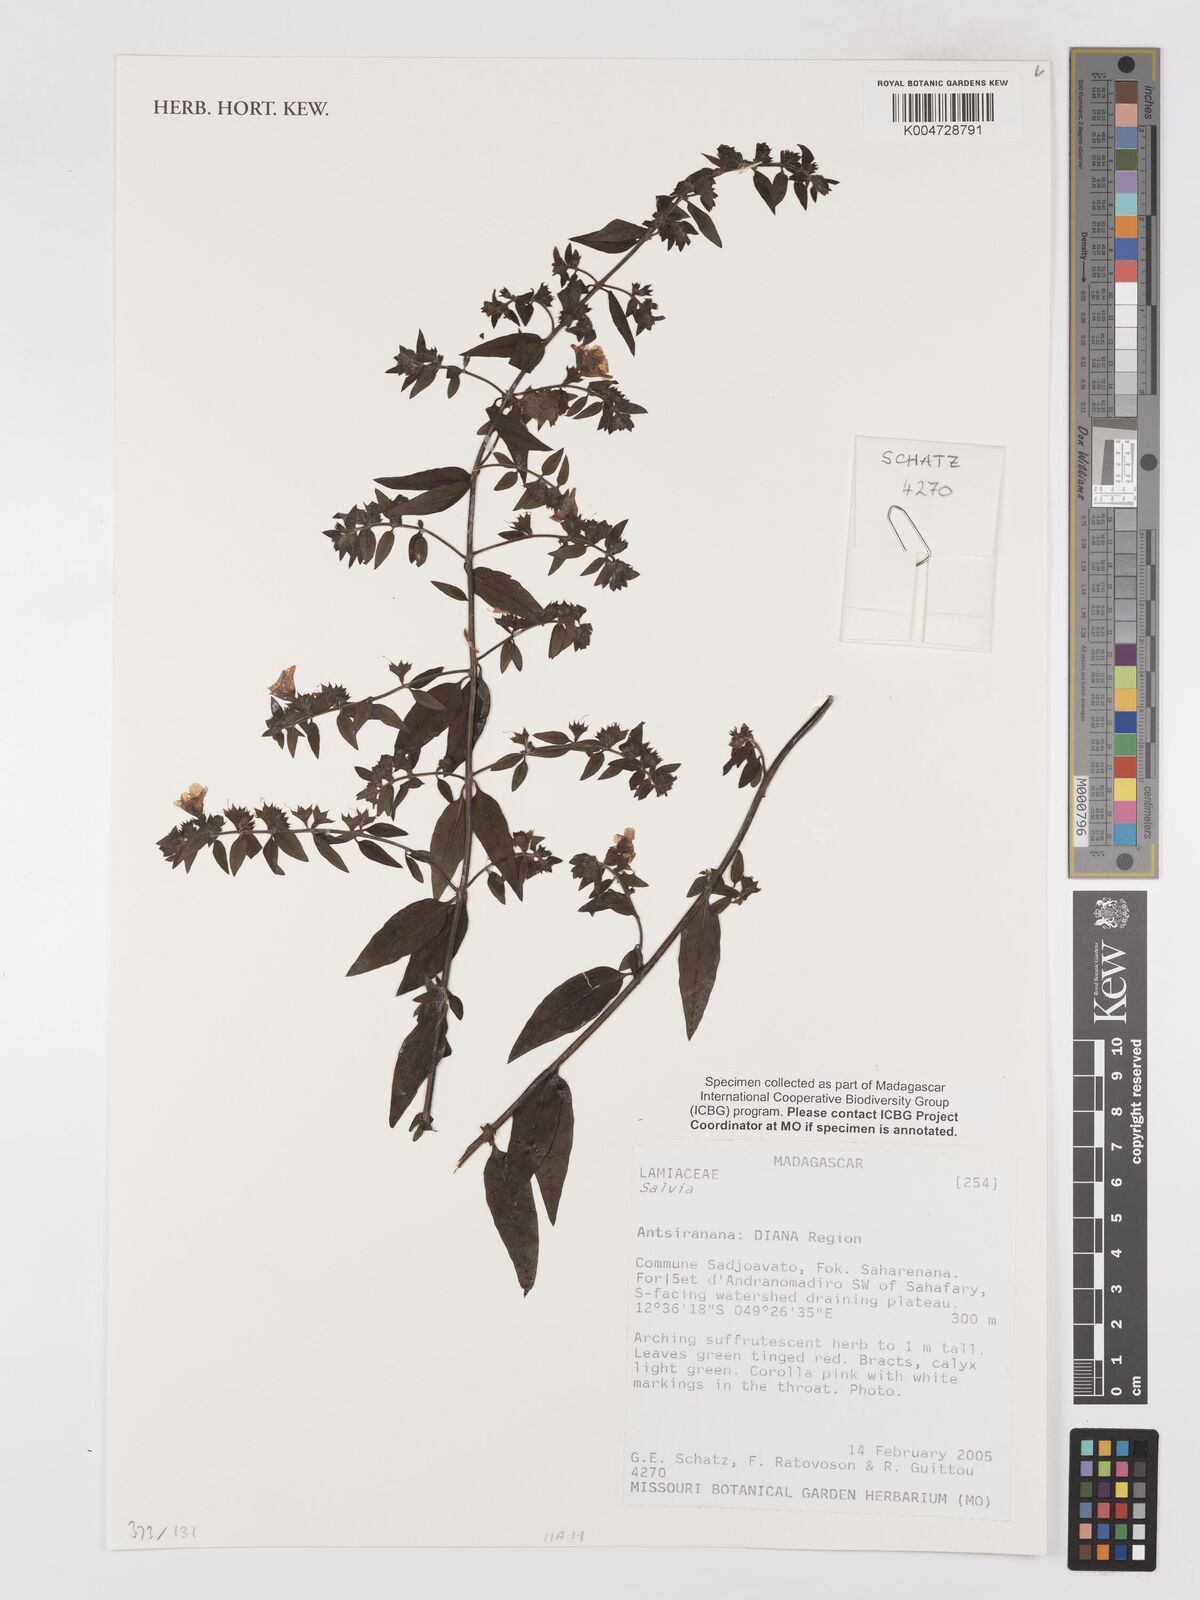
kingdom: Plantae
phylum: Tracheophyta
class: Magnoliopsida
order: Lamiales
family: Lamiaceae
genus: Salvia
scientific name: Salvia
